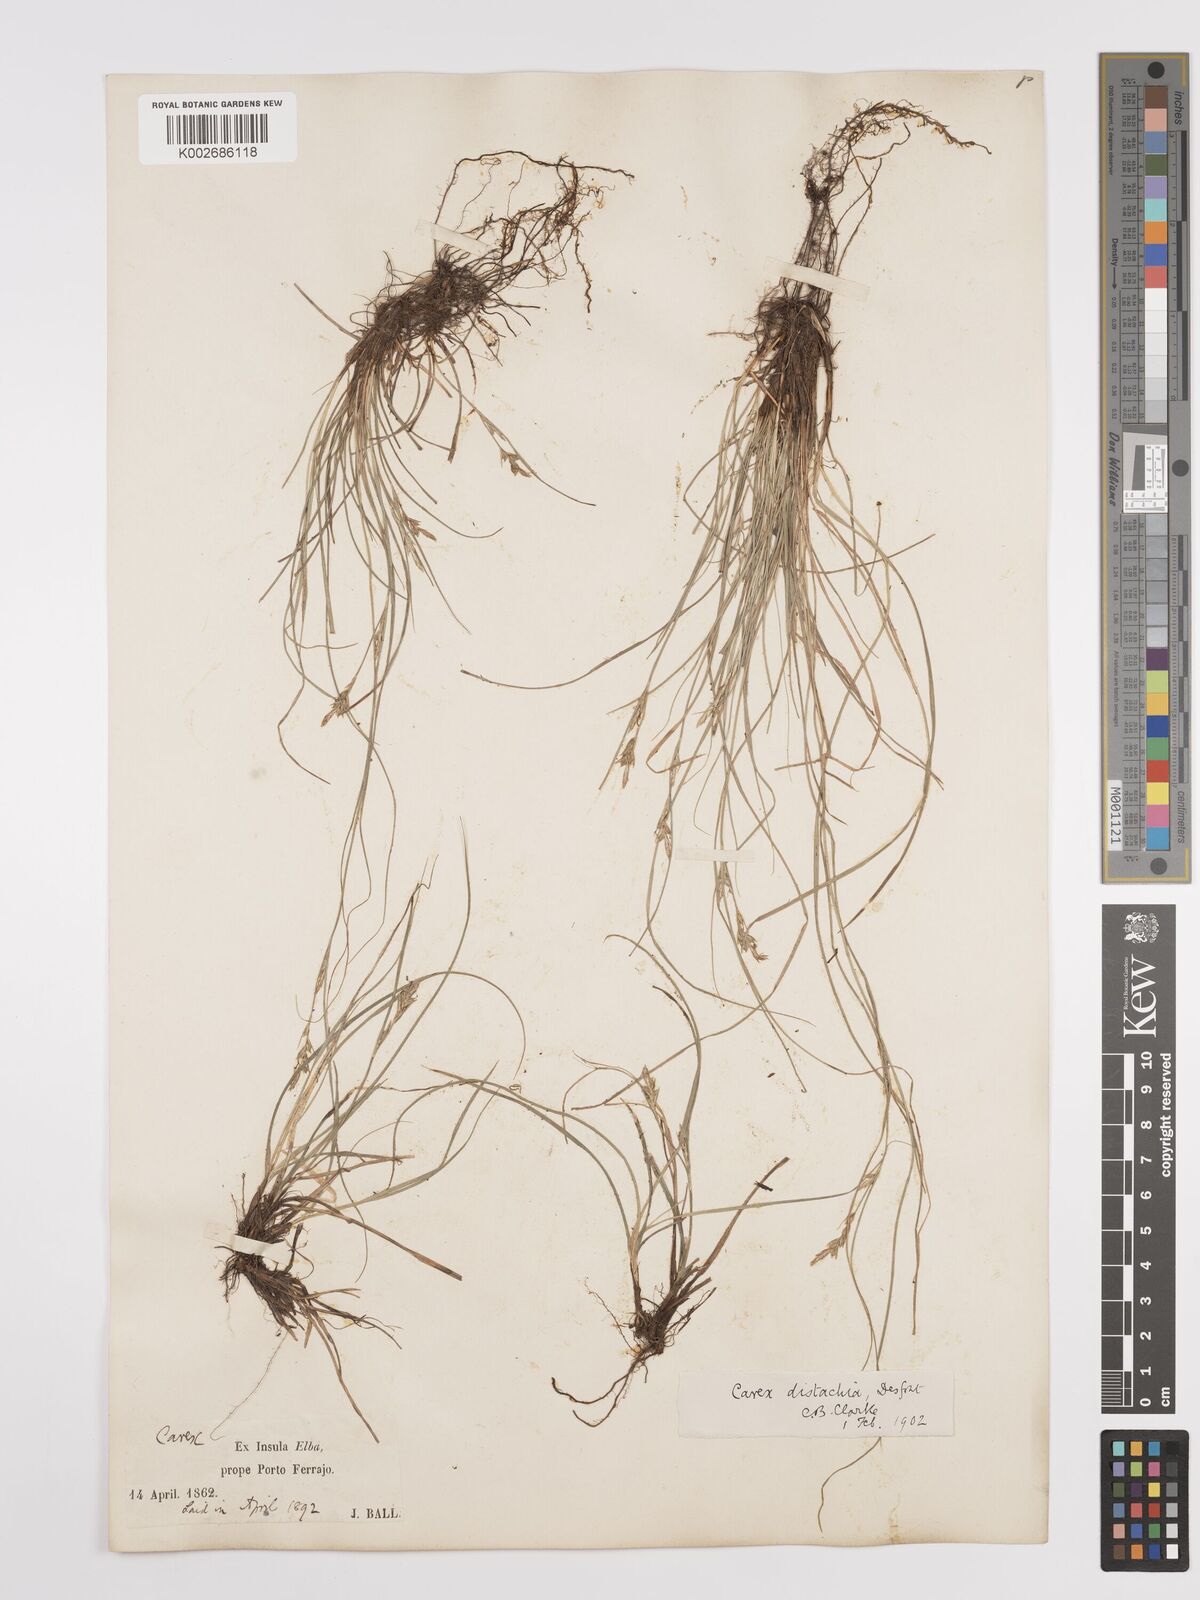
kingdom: Plantae
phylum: Tracheophyta
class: Liliopsida
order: Poales
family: Cyperaceae
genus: Carex
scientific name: Carex distachya
